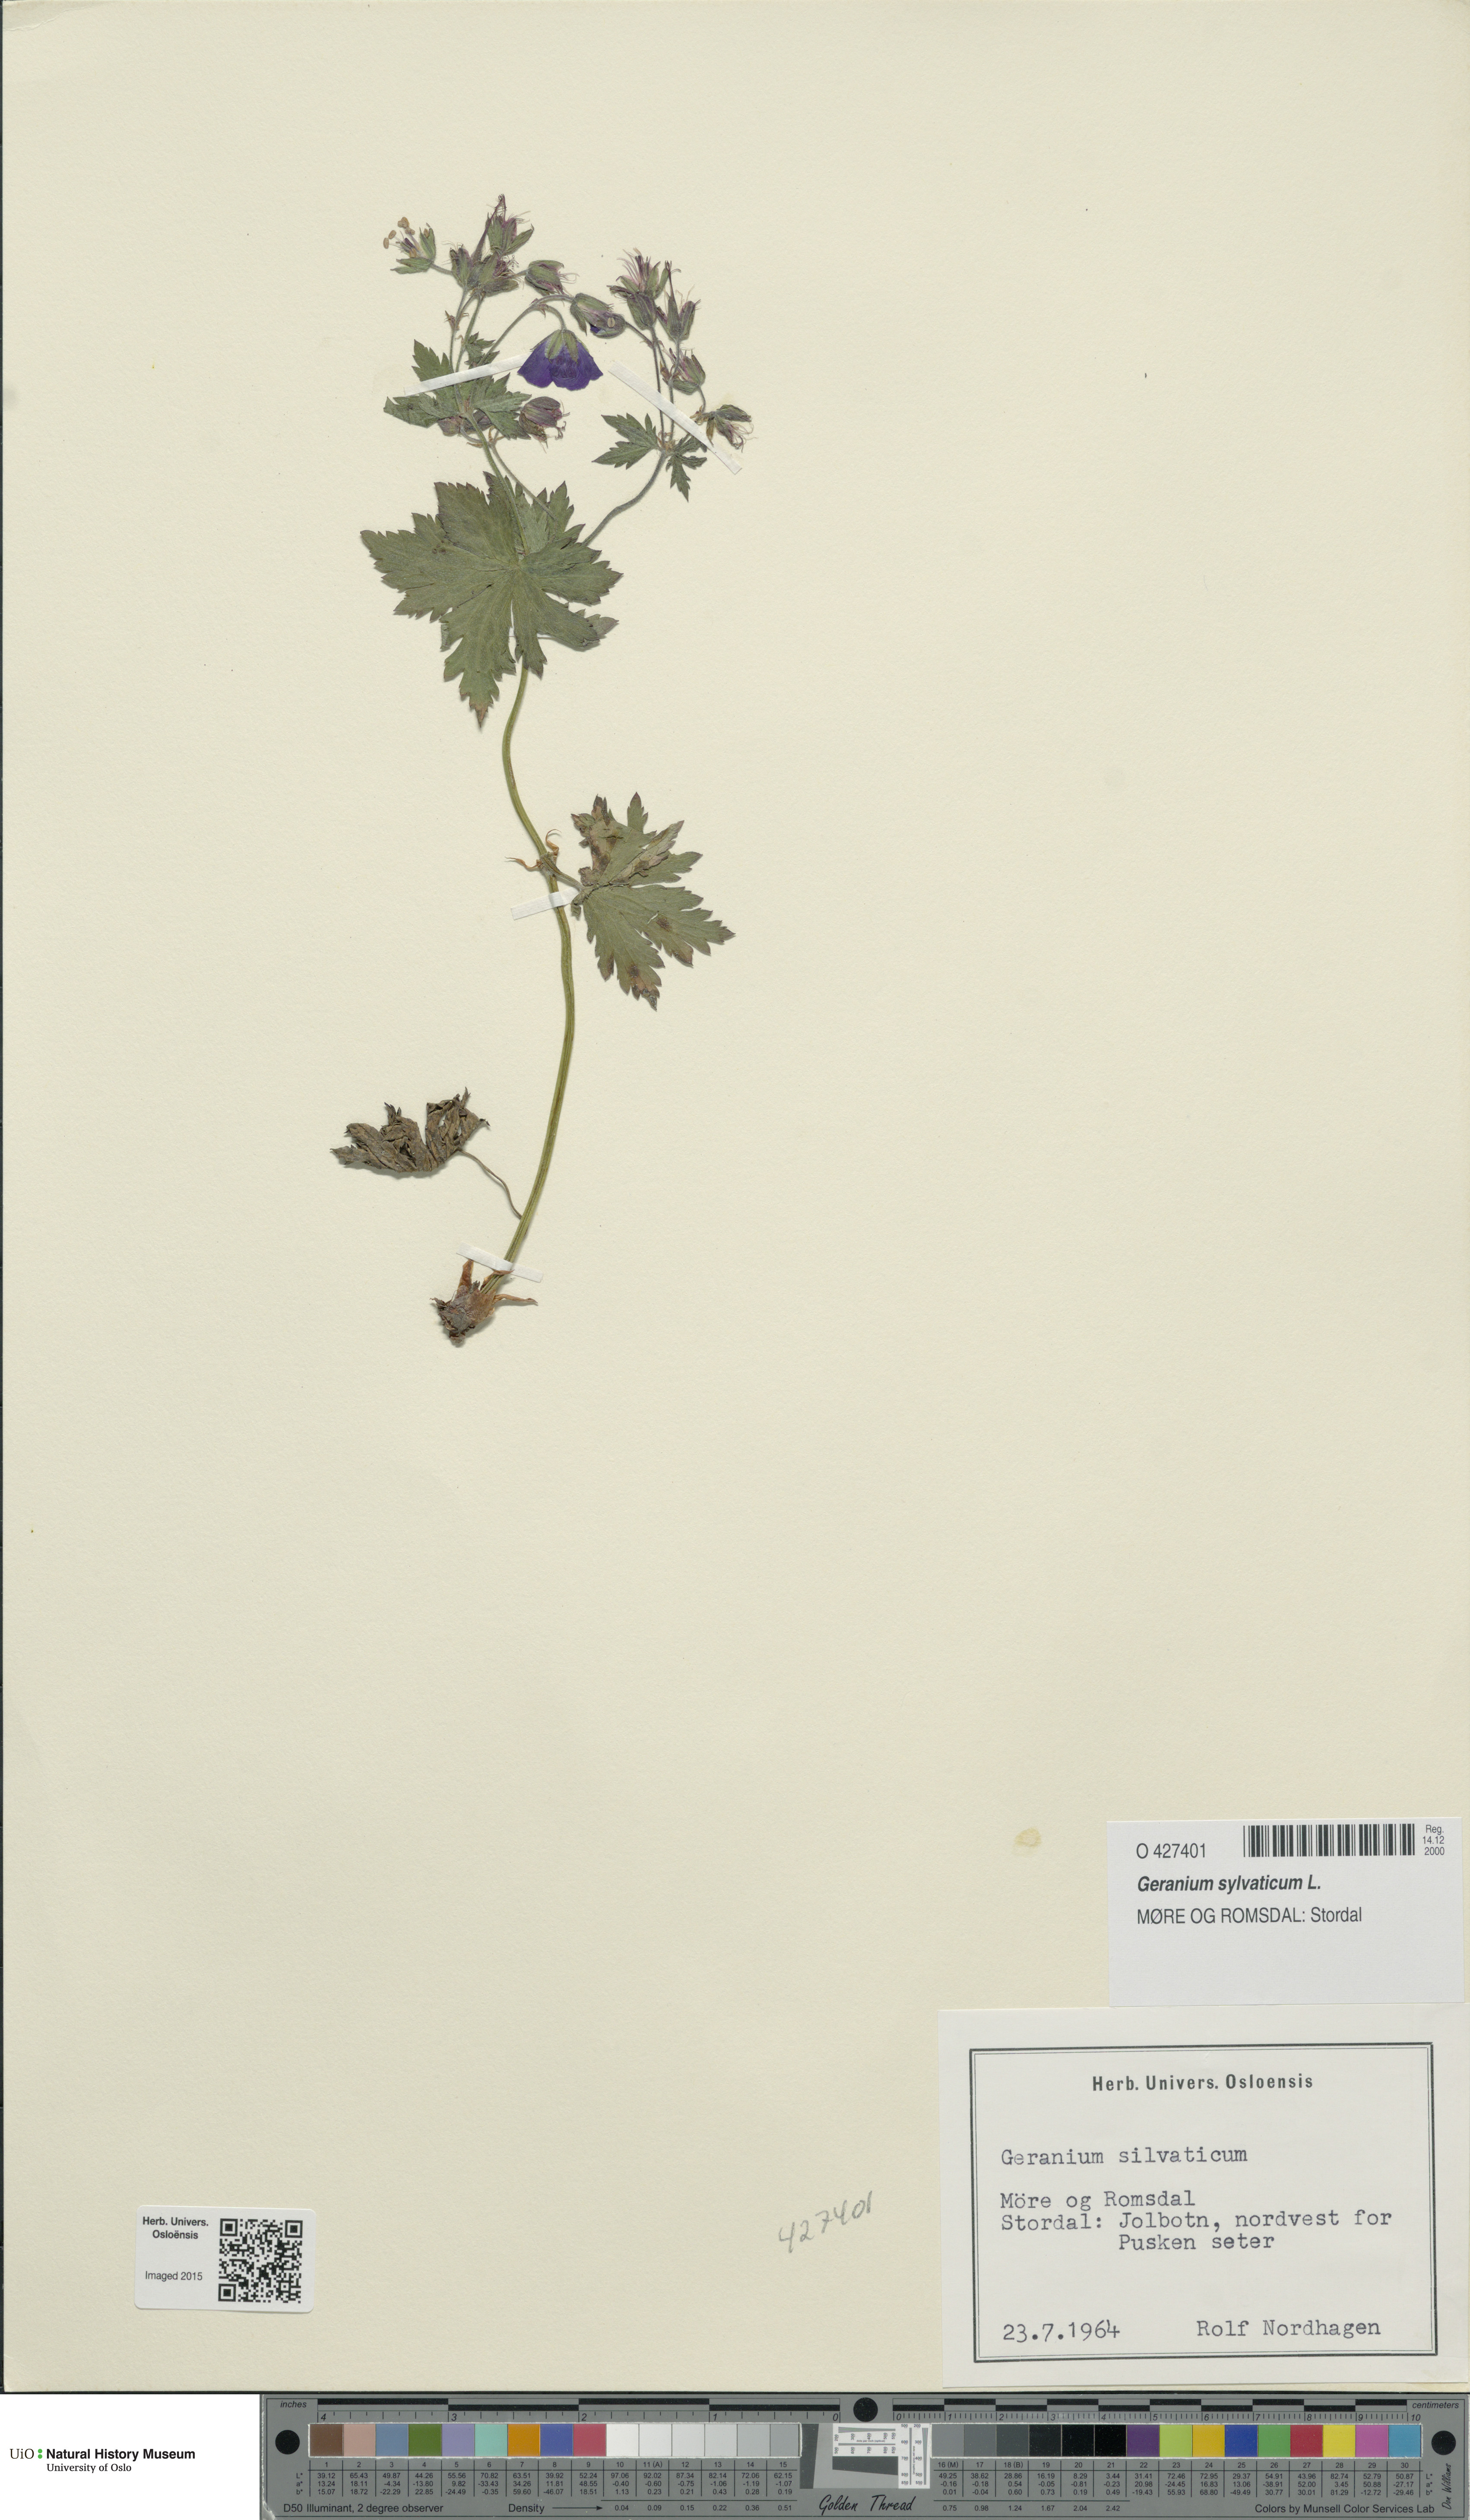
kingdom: Plantae
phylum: Tracheophyta
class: Magnoliopsida
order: Geraniales
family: Geraniaceae
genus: Geranium
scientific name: Geranium sylvaticum
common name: Wood crane's-bill
